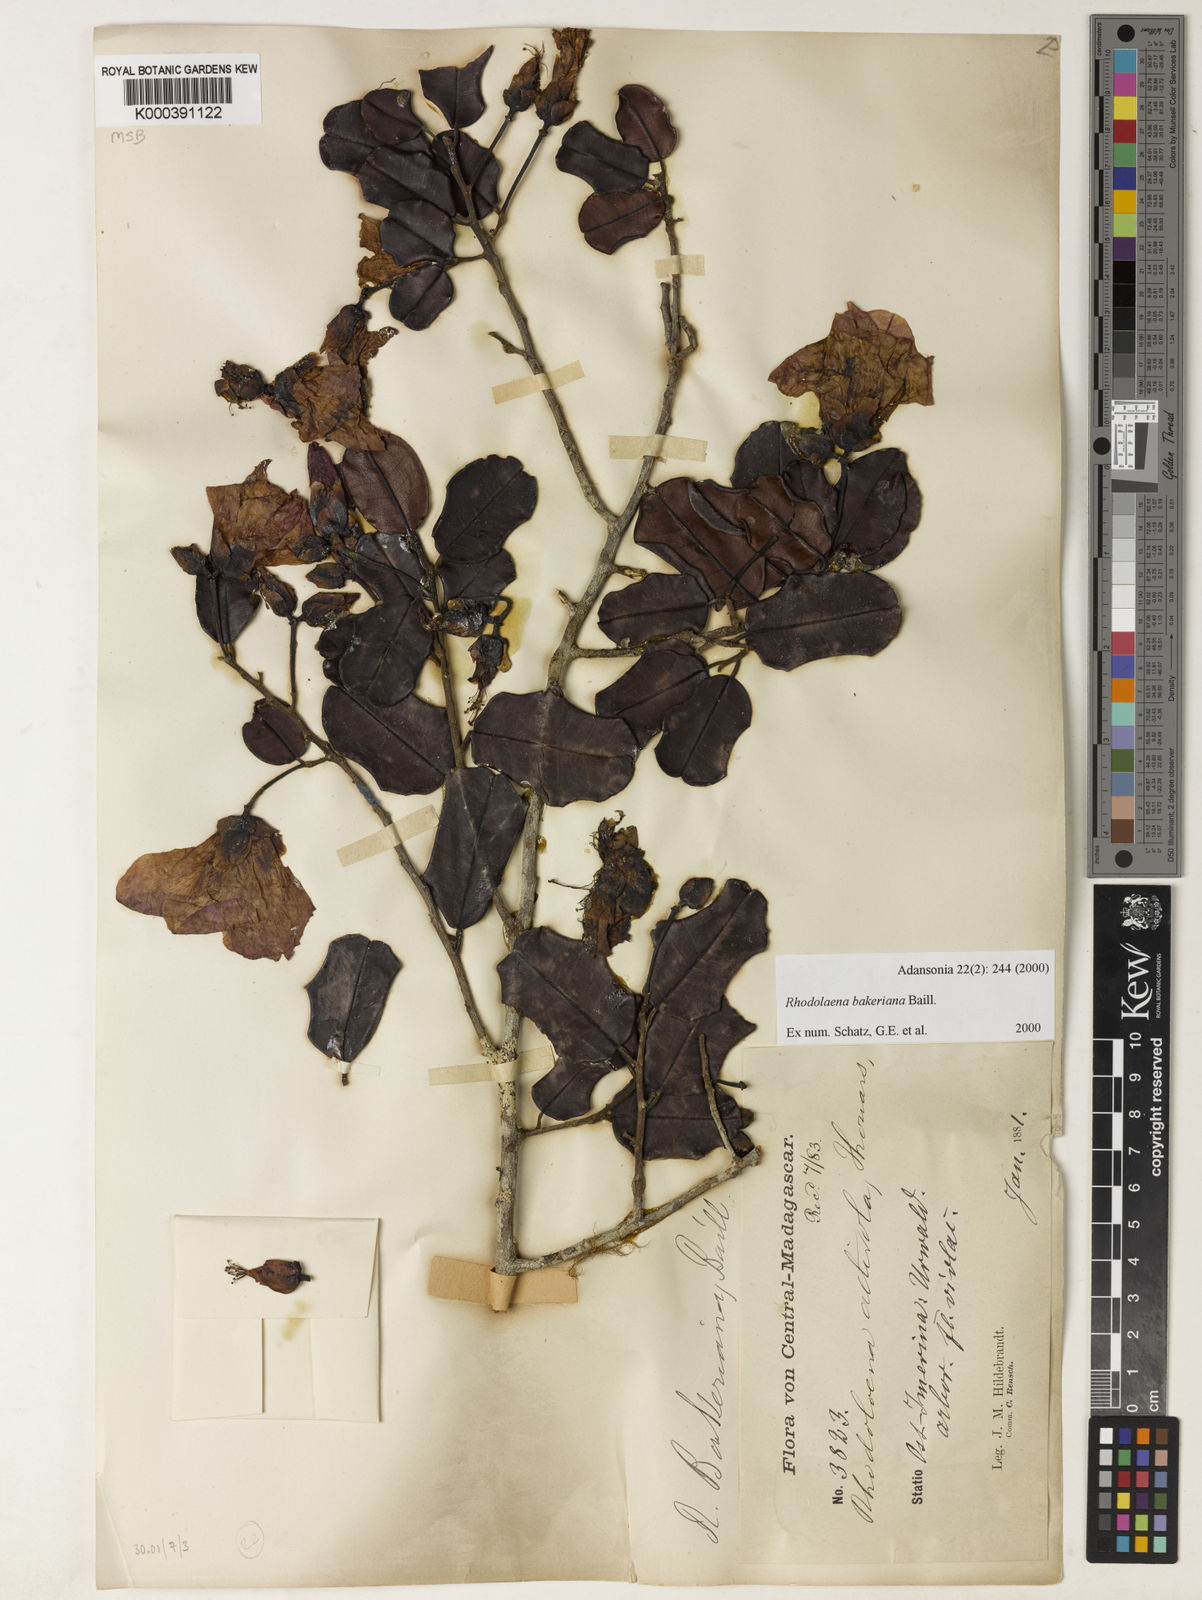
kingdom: Plantae
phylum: Tracheophyta
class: Magnoliopsida
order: Malvales
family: Sarcolaenaceae
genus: Rhodolaena
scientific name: Rhodolaena bakeriana
